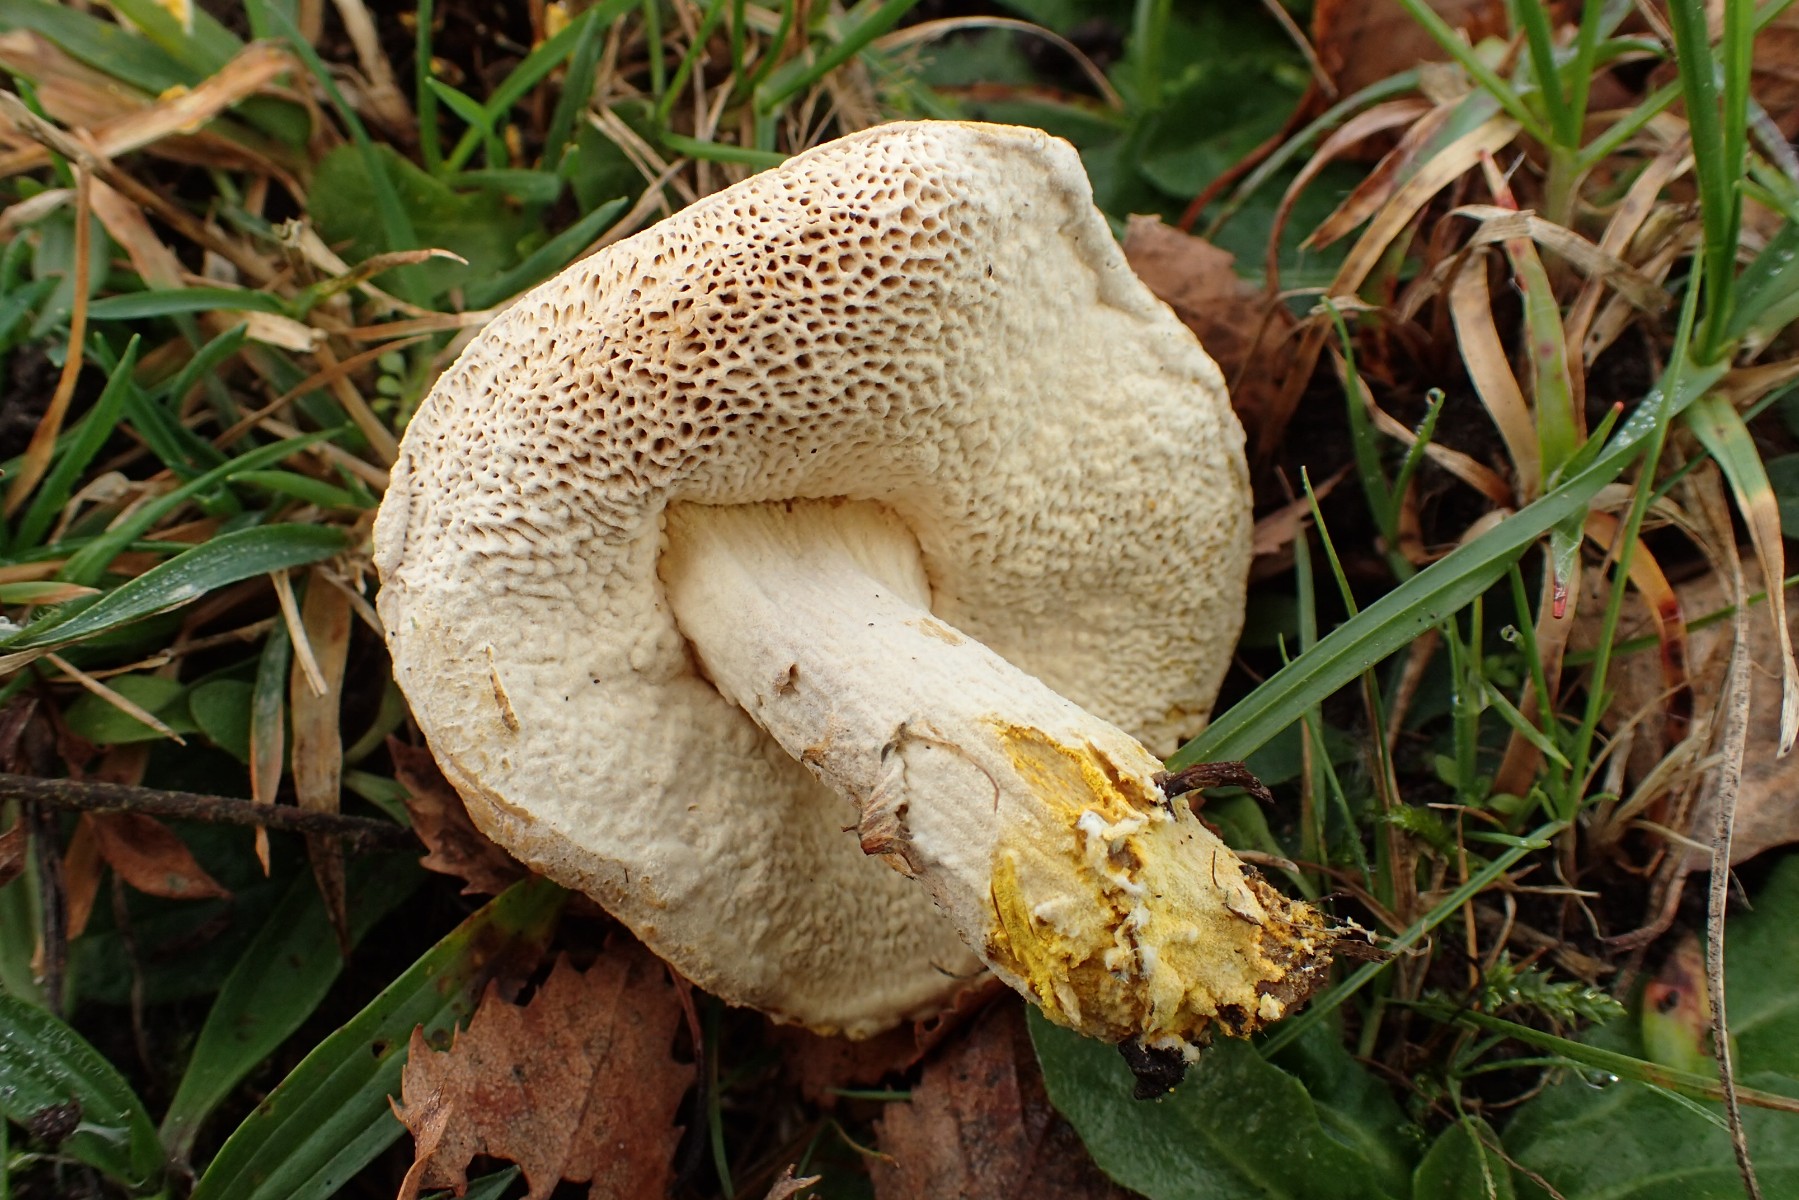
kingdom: Fungi
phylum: Ascomycota
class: Sordariomycetes
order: Hypocreales
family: Hypocreaceae
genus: Hypomyces
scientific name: Hypomyces microspermus
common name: dværgrørhat-snylteskorpe
